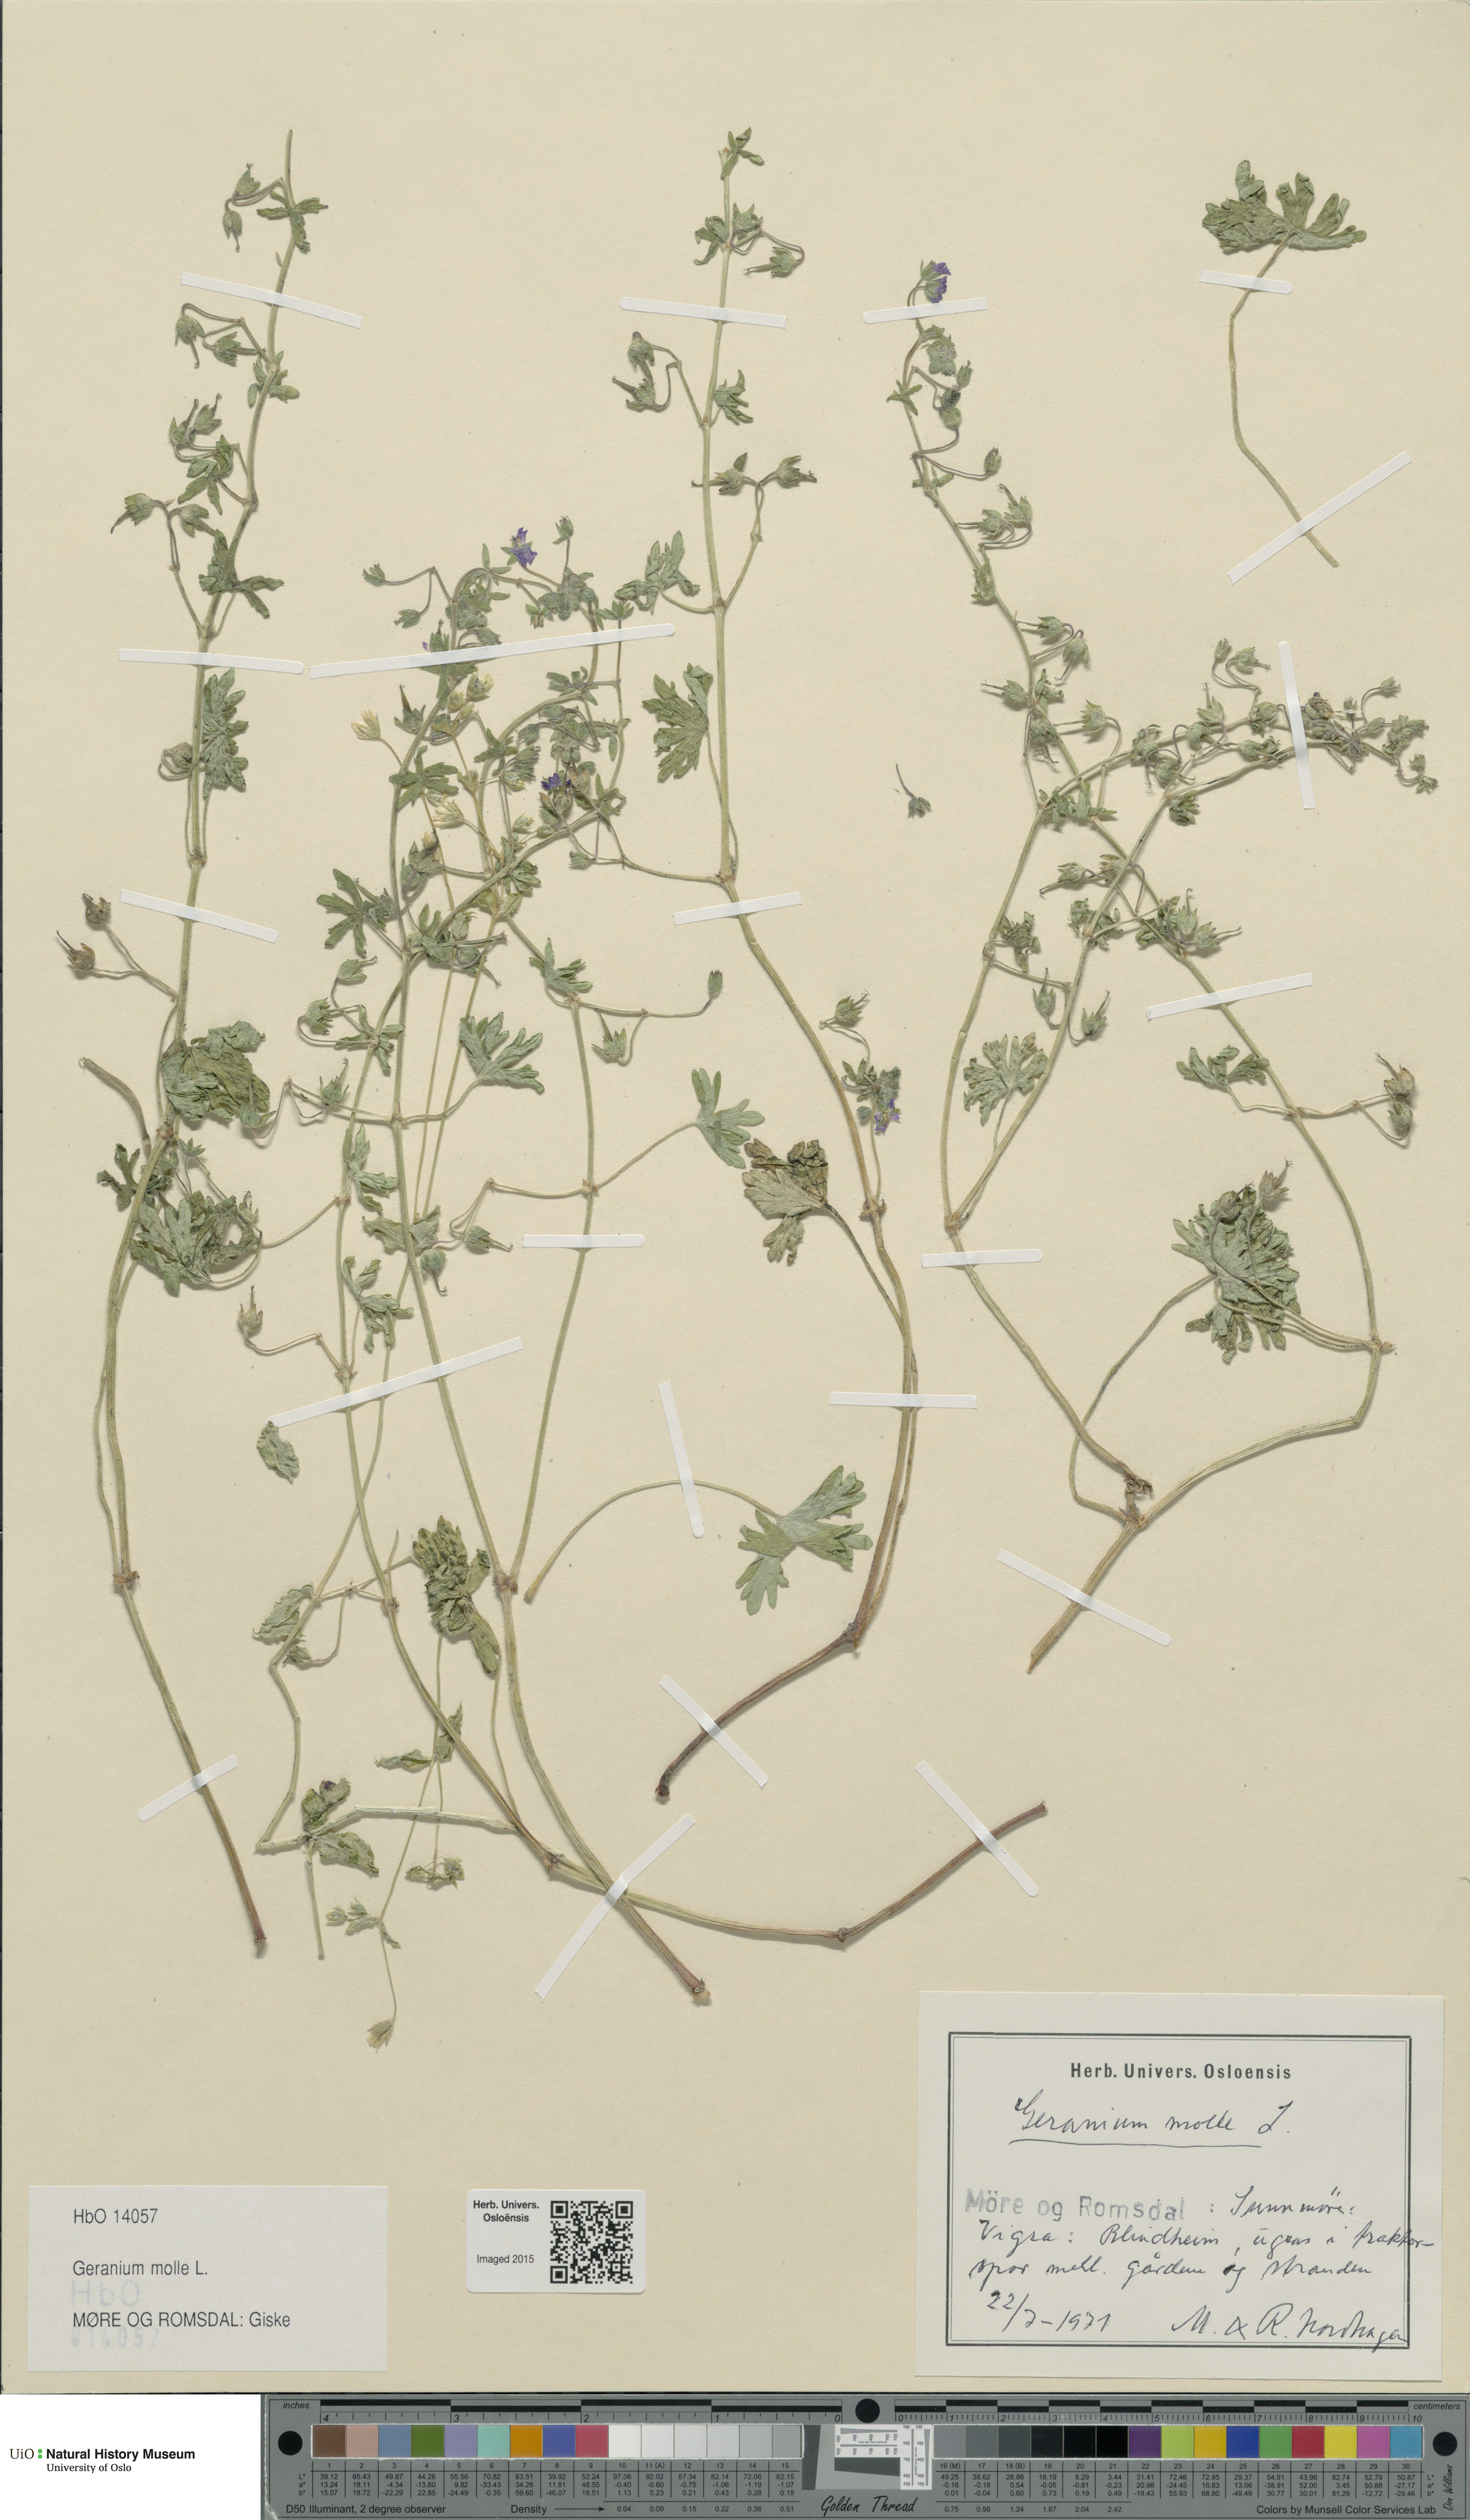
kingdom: Plantae
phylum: Tracheophyta
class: Magnoliopsida
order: Geraniales
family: Geraniaceae
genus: Geranium
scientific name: Geranium molle
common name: Dove's-foot crane's-bill
